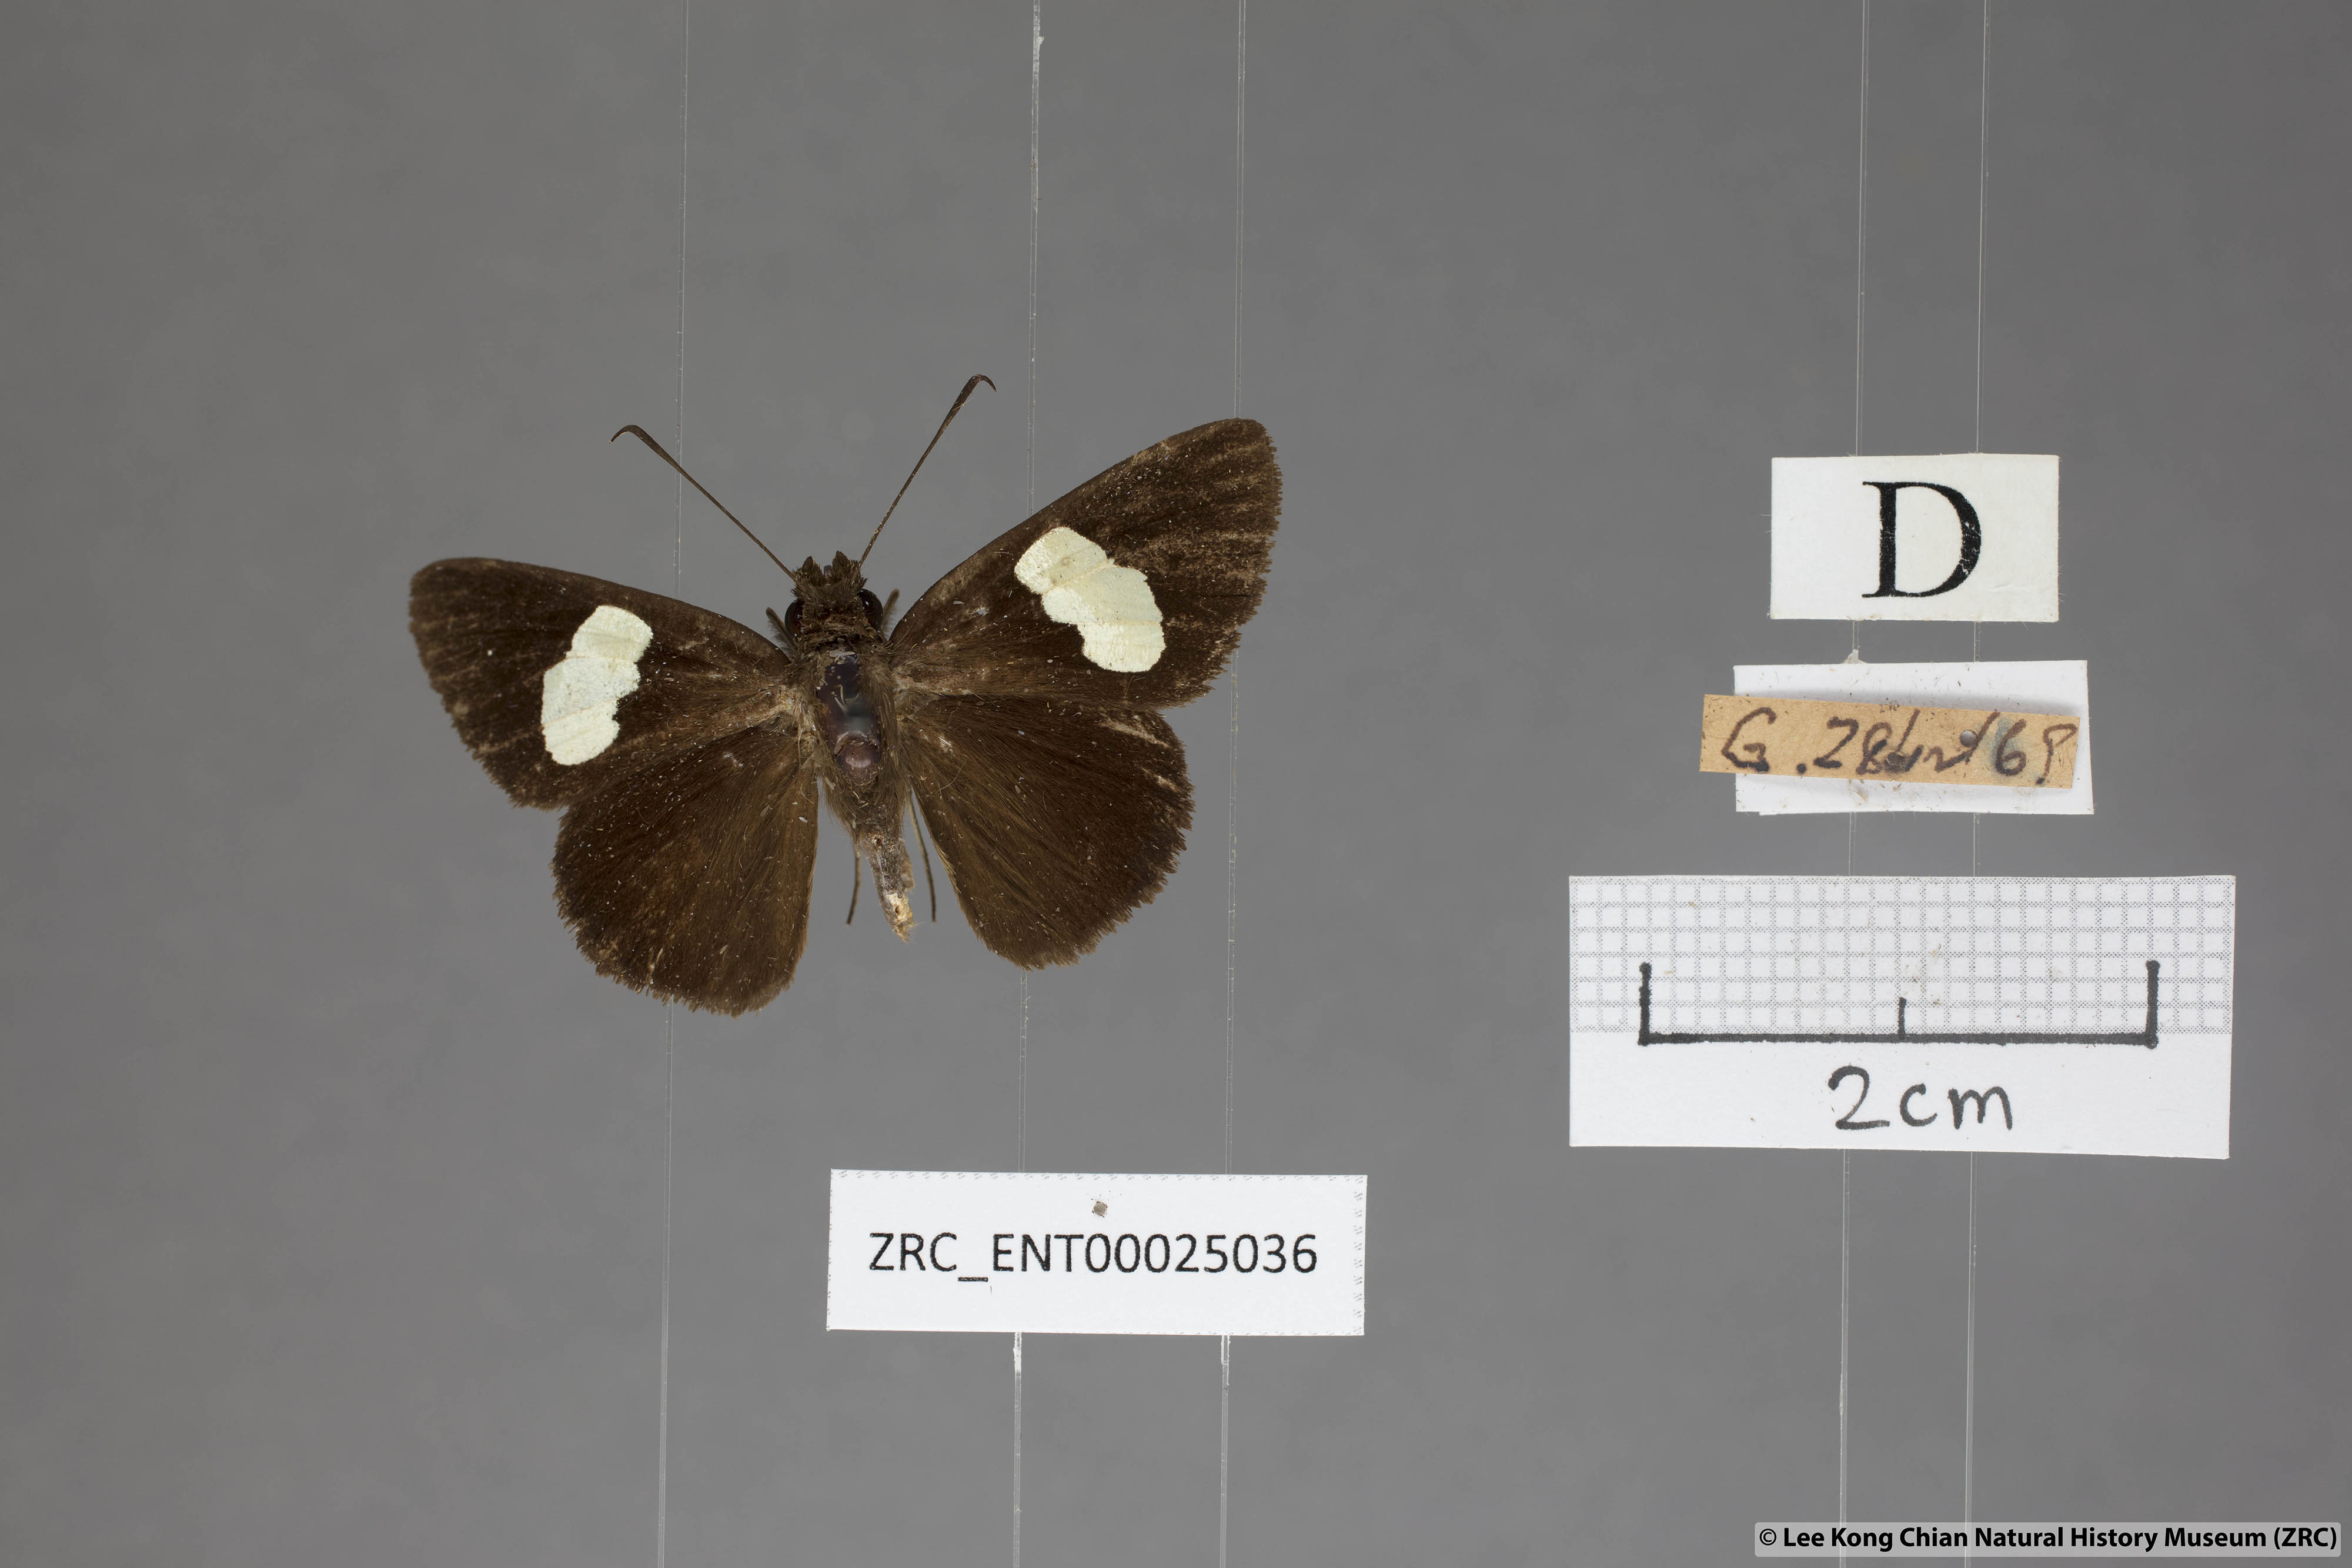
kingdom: Animalia
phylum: Arthropoda
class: Insecta
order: Lepidoptera
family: Hesperiidae
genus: Notocrypta
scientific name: Notocrypta paralysos
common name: Common banded demon
